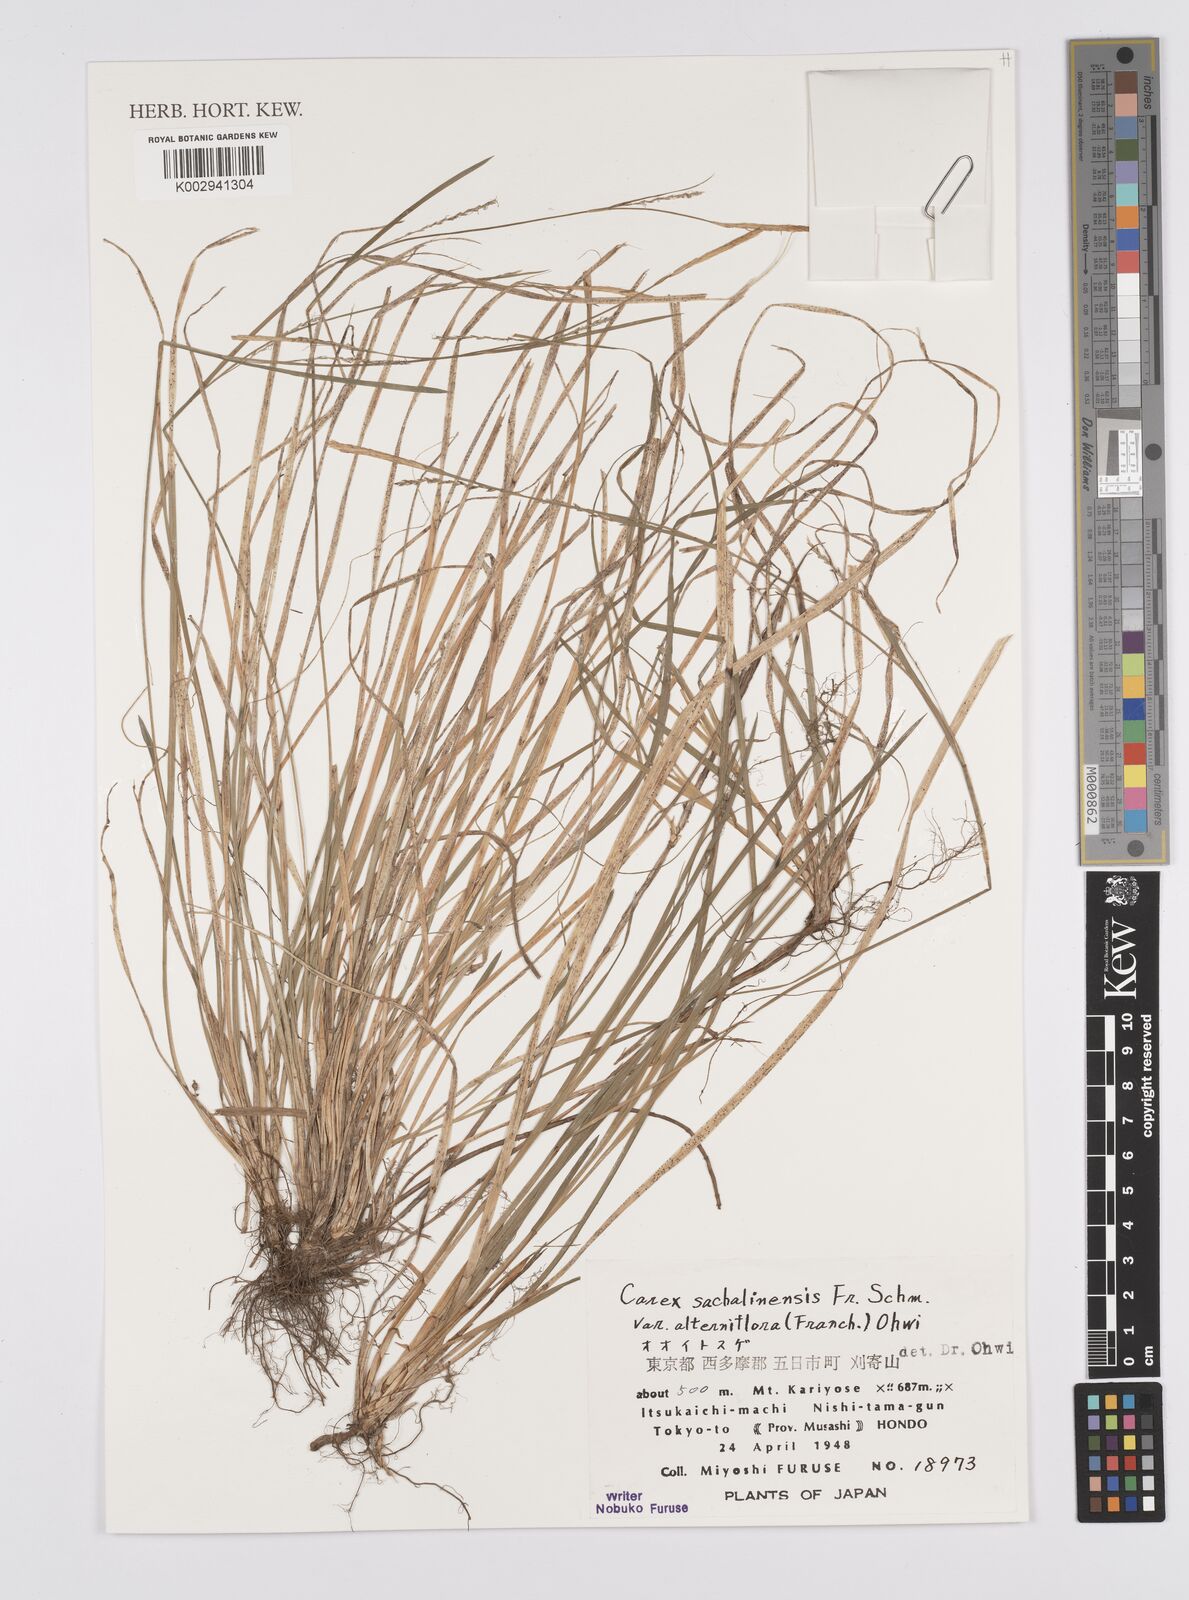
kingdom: Plantae
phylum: Tracheophyta
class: Liliopsida
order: Poales
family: Cyperaceae
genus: Carex
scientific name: Carex pisiformis
